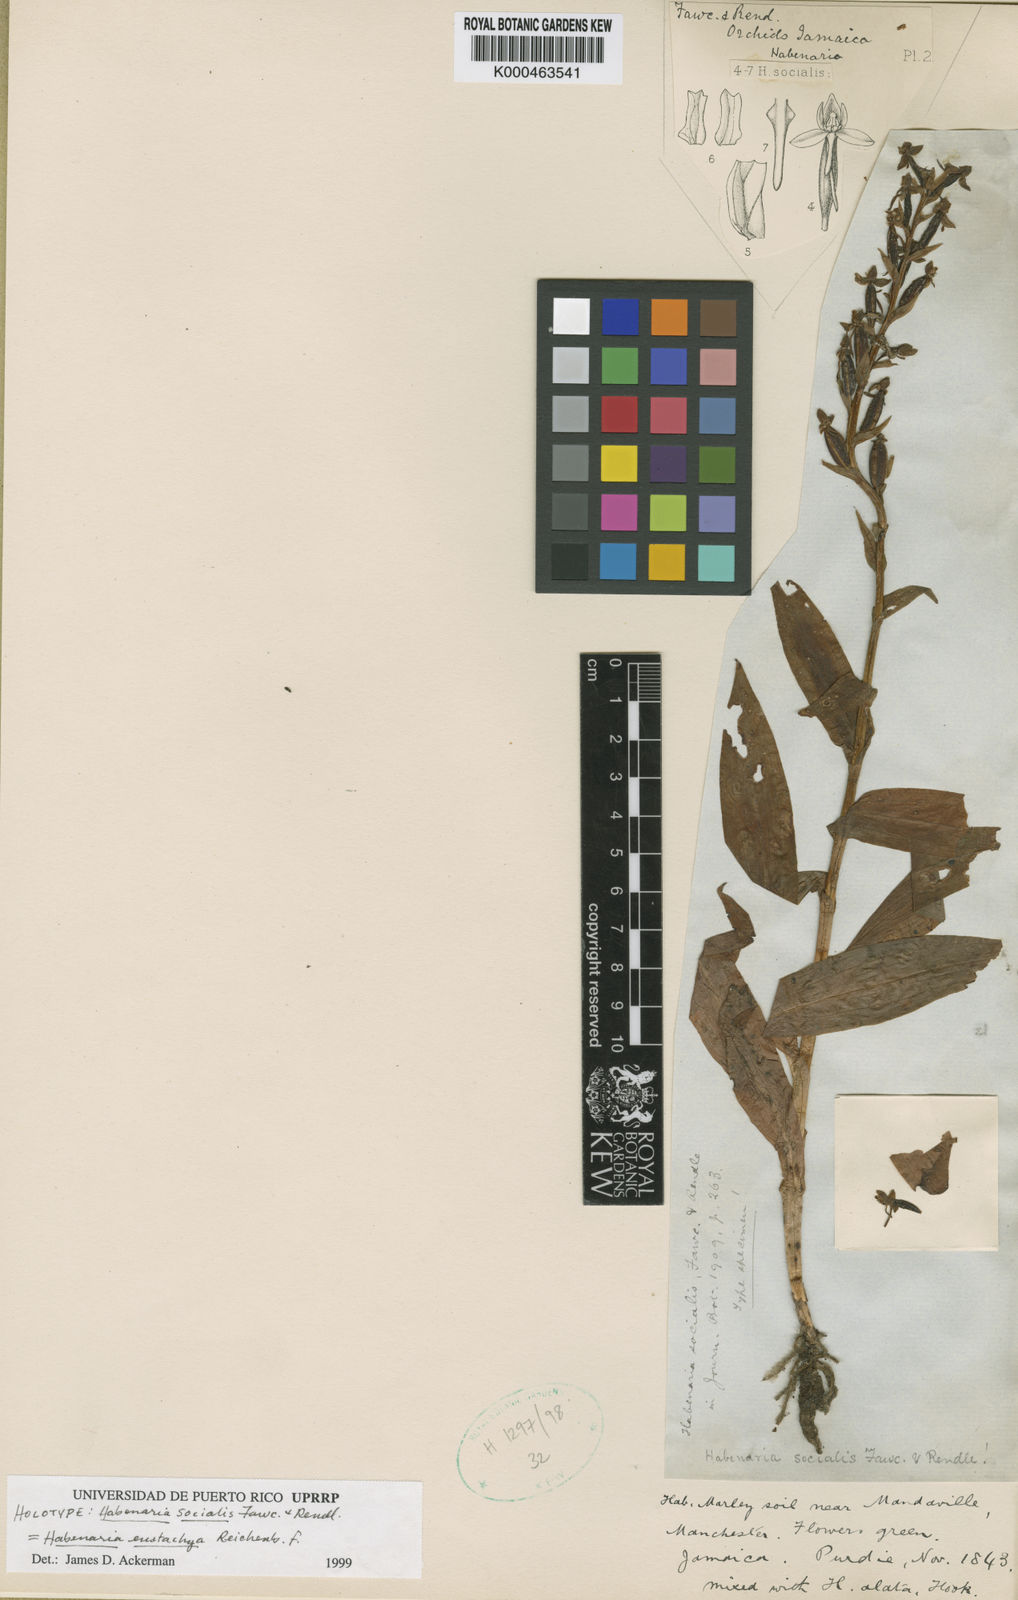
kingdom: Plantae
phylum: Tracheophyta
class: Liliopsida
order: Asparagales
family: Orchidaceae
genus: Habenaria
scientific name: Habenaria socialis
